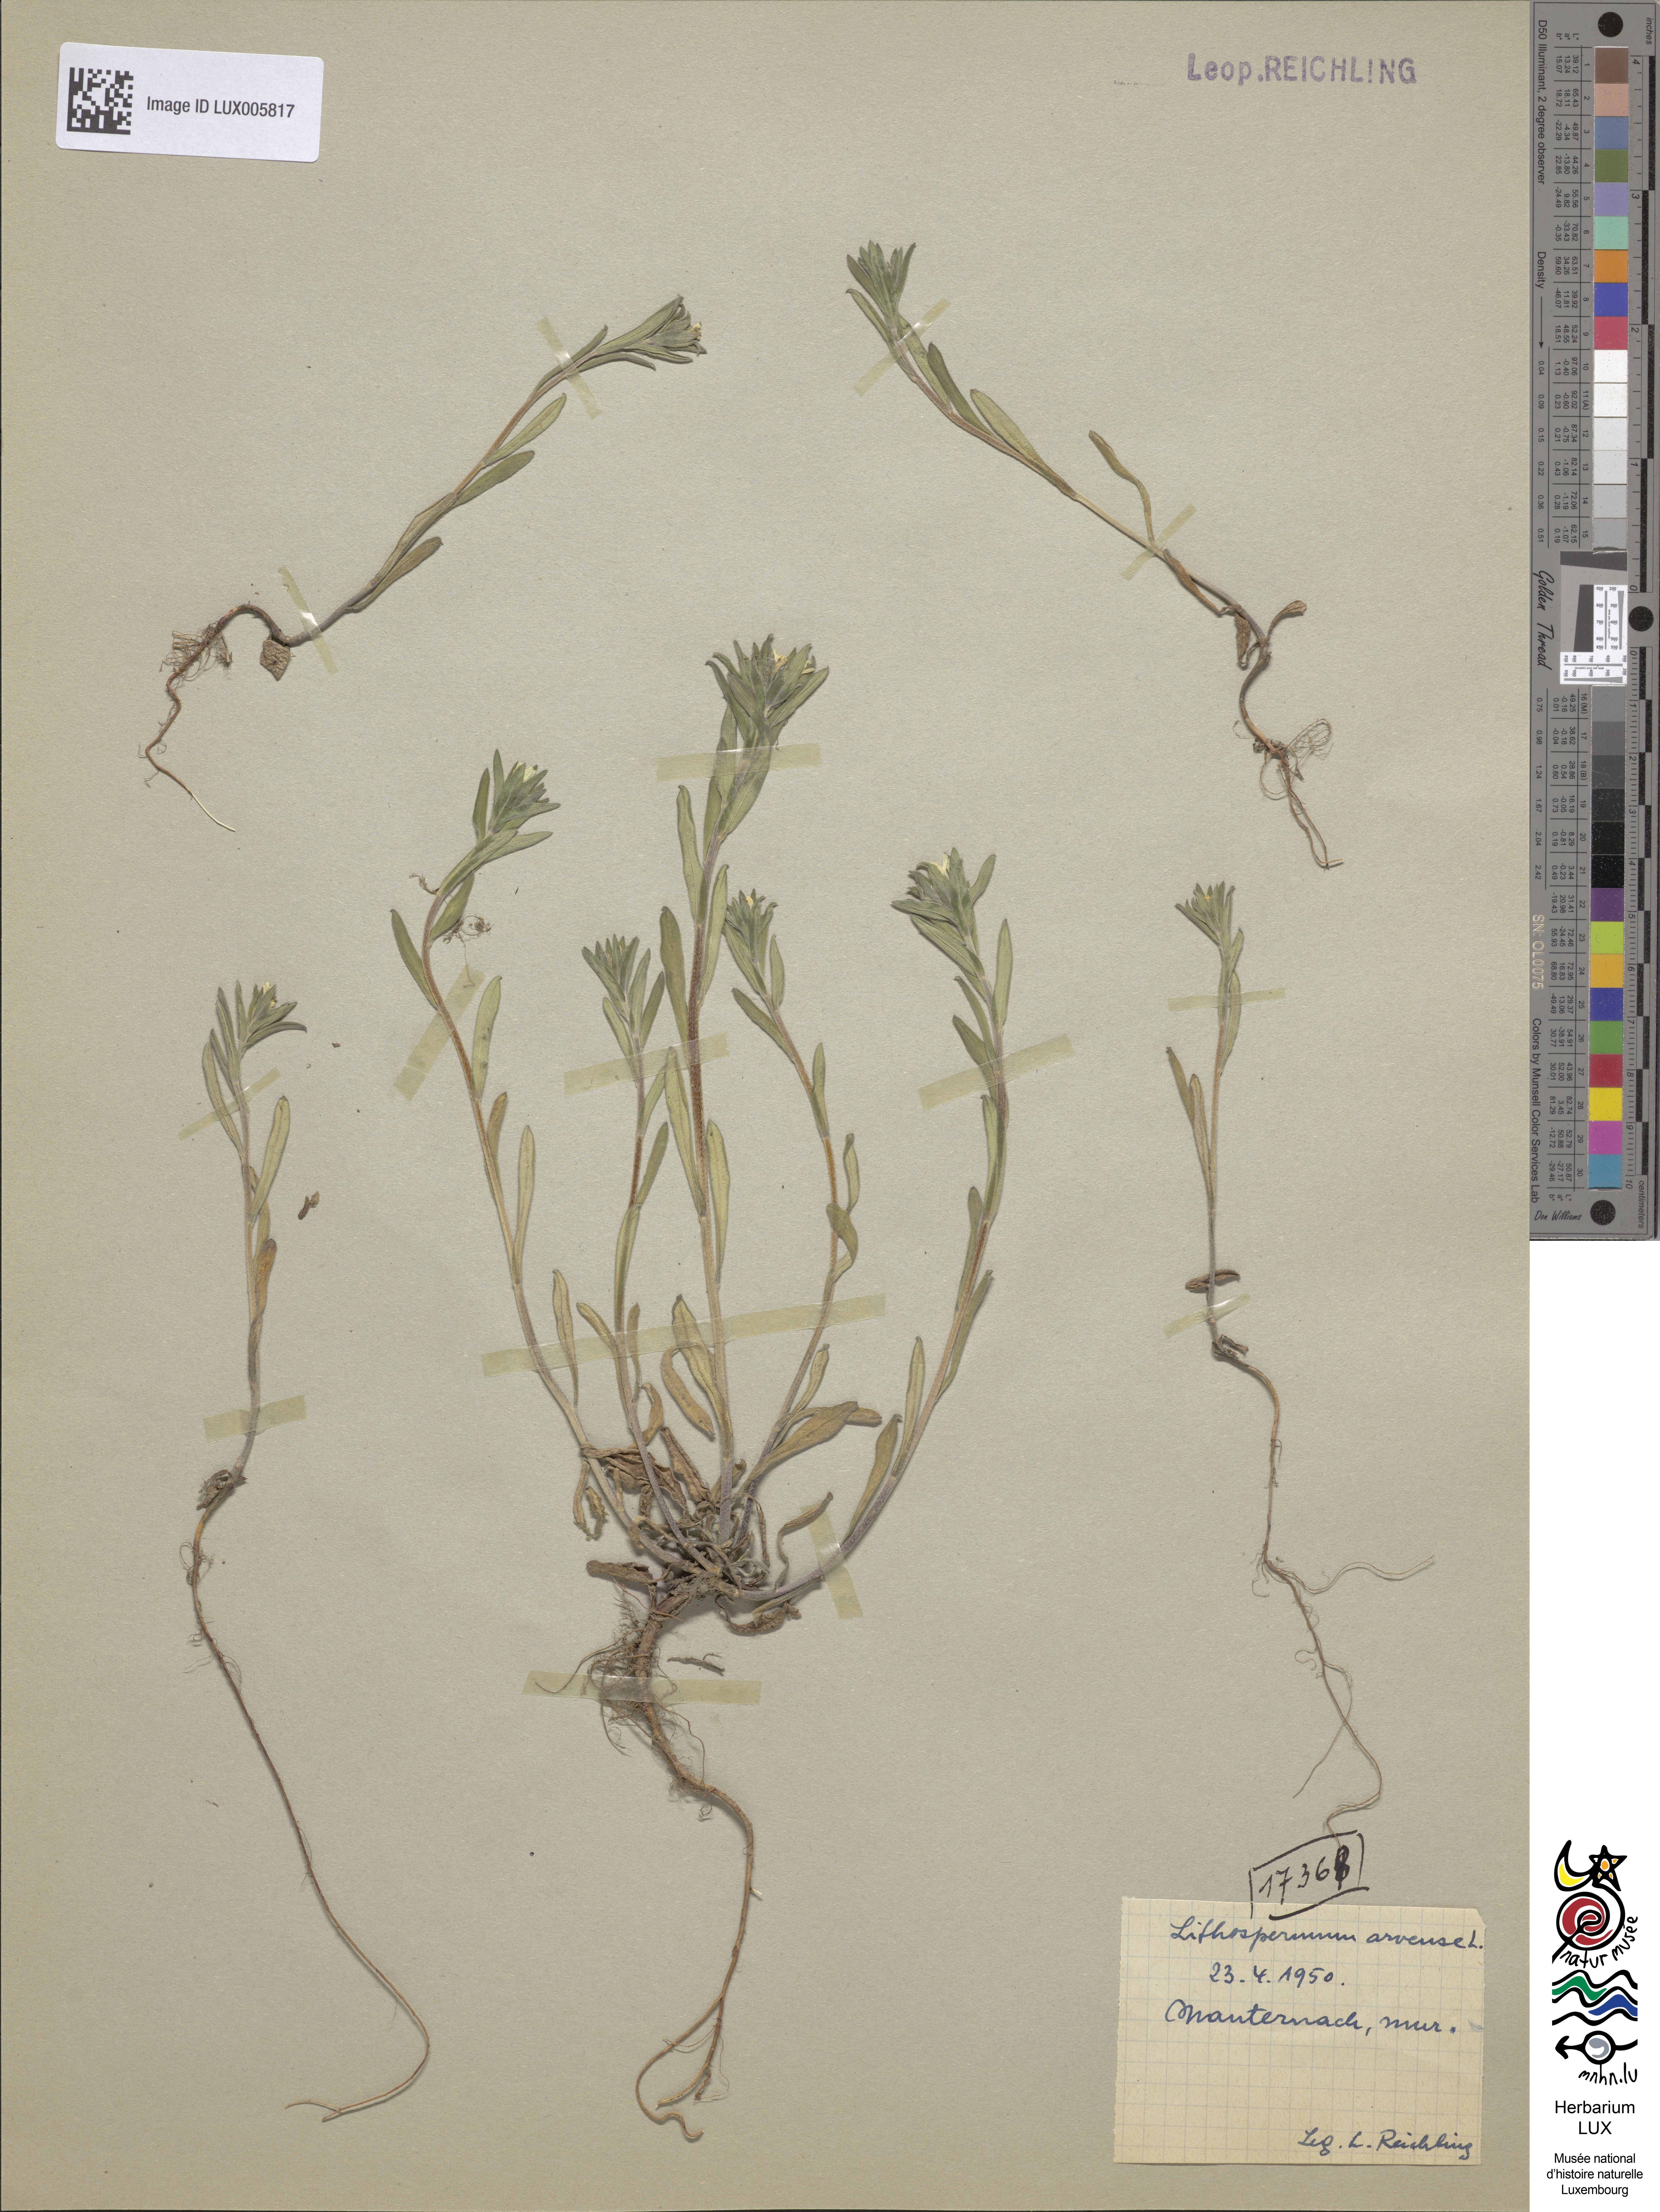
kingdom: Plantae
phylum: Tracheophyta
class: Magnoliopsida
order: Boraginales
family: Boraginaceae
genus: Buglossoides
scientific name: Buglossoides arvensis
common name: Corn gromwell
